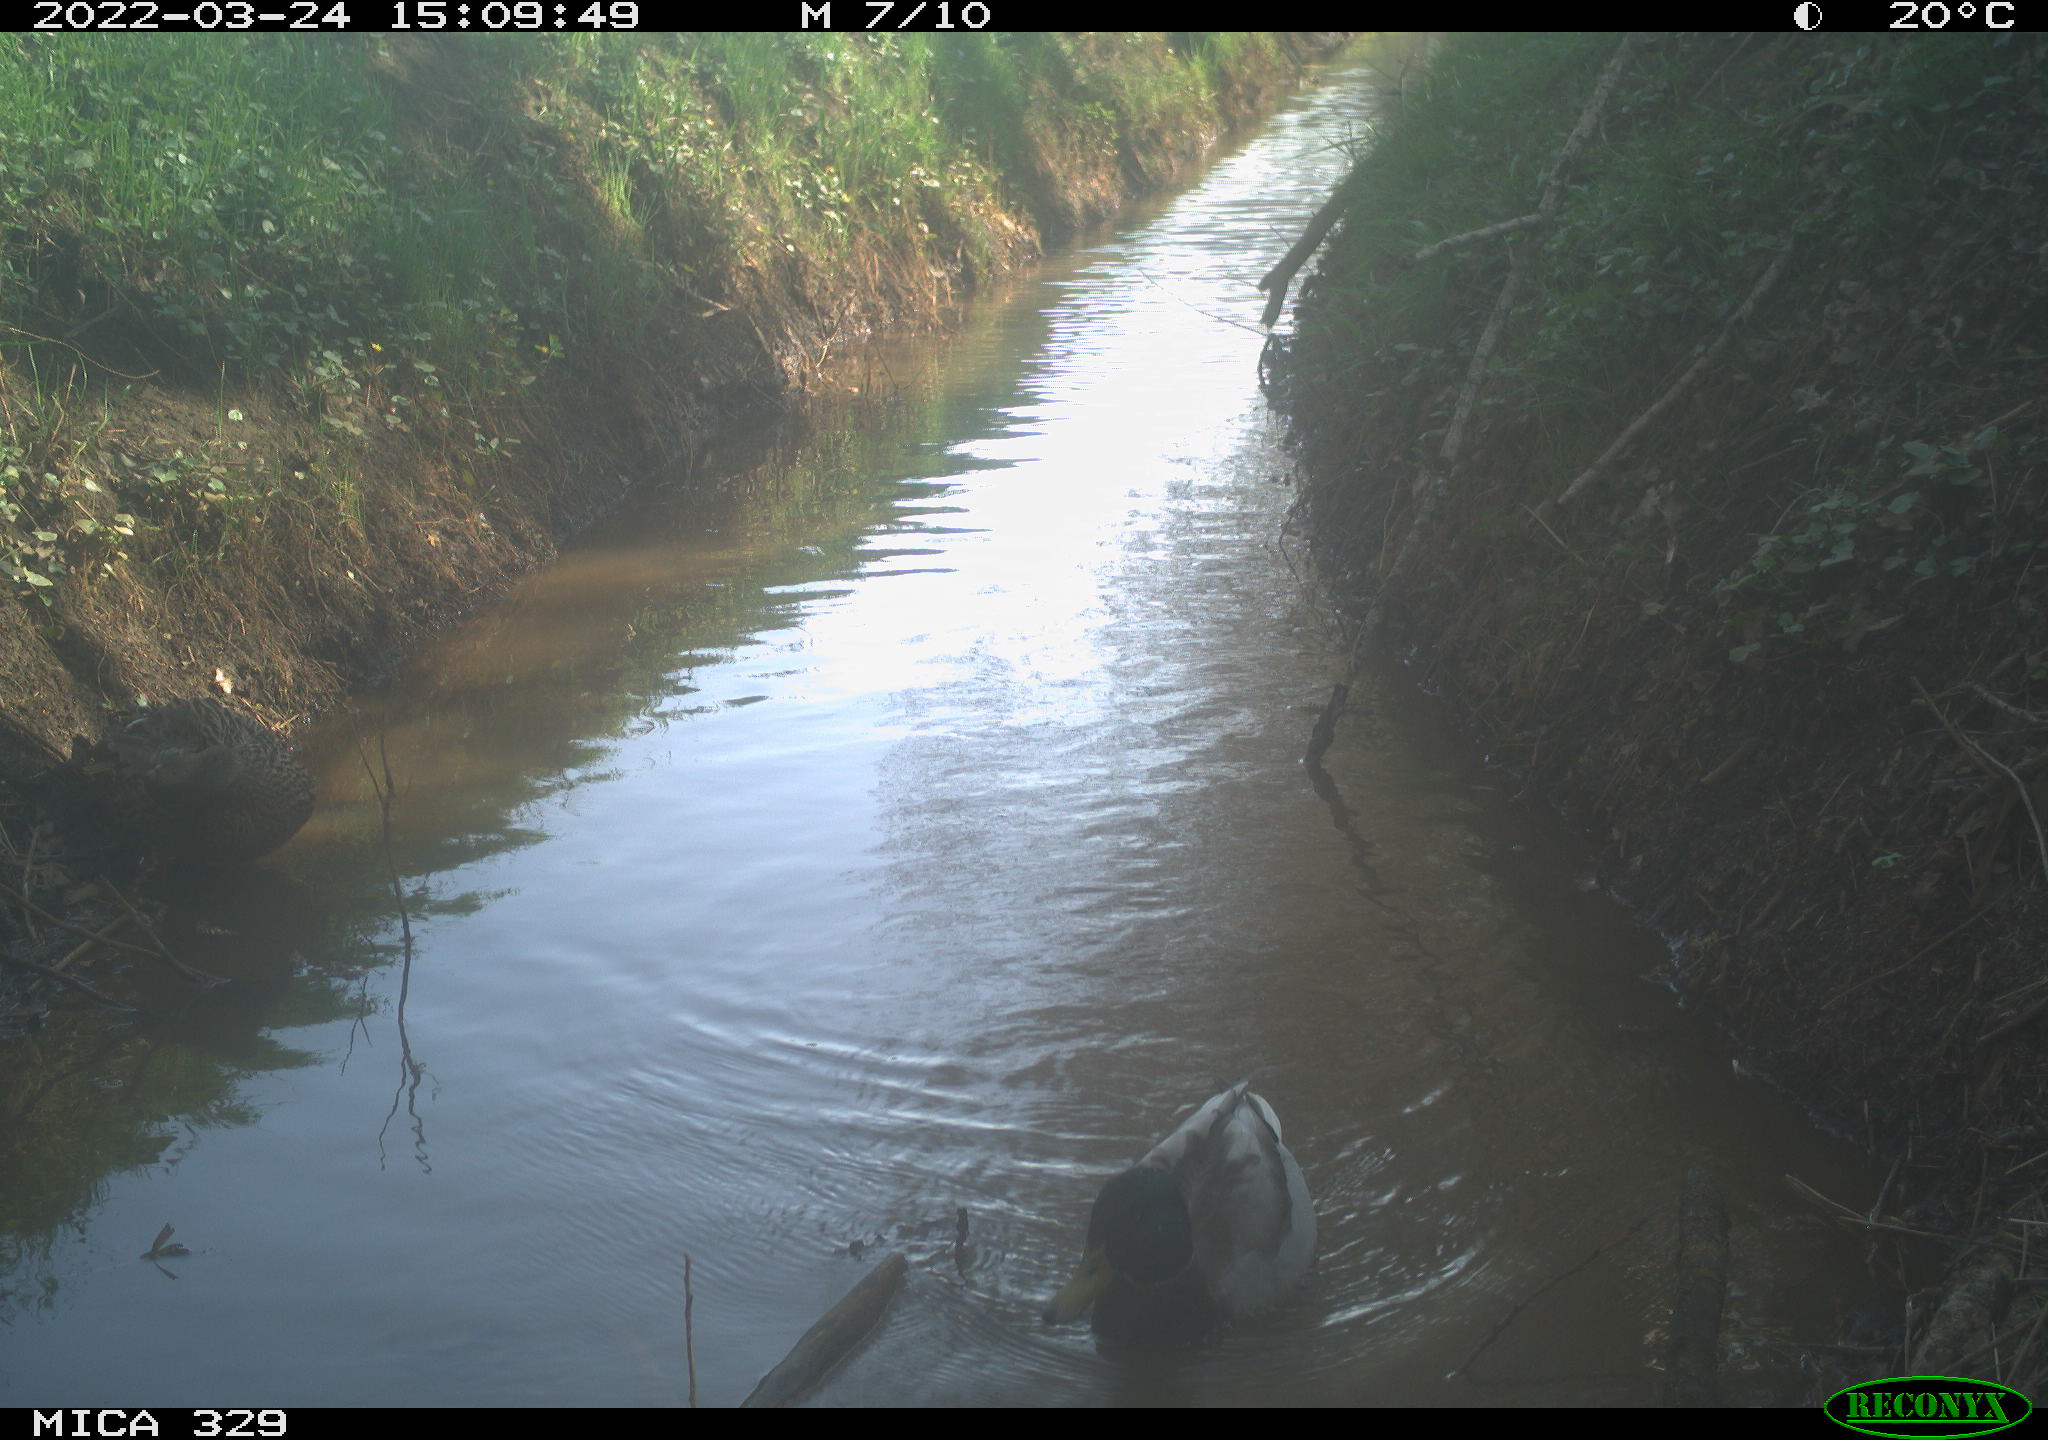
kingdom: Animalia
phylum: Chordata
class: Aves
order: Anseriformes
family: Anatidae
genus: Anas
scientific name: Anas platyrhynchos
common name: Mallard
